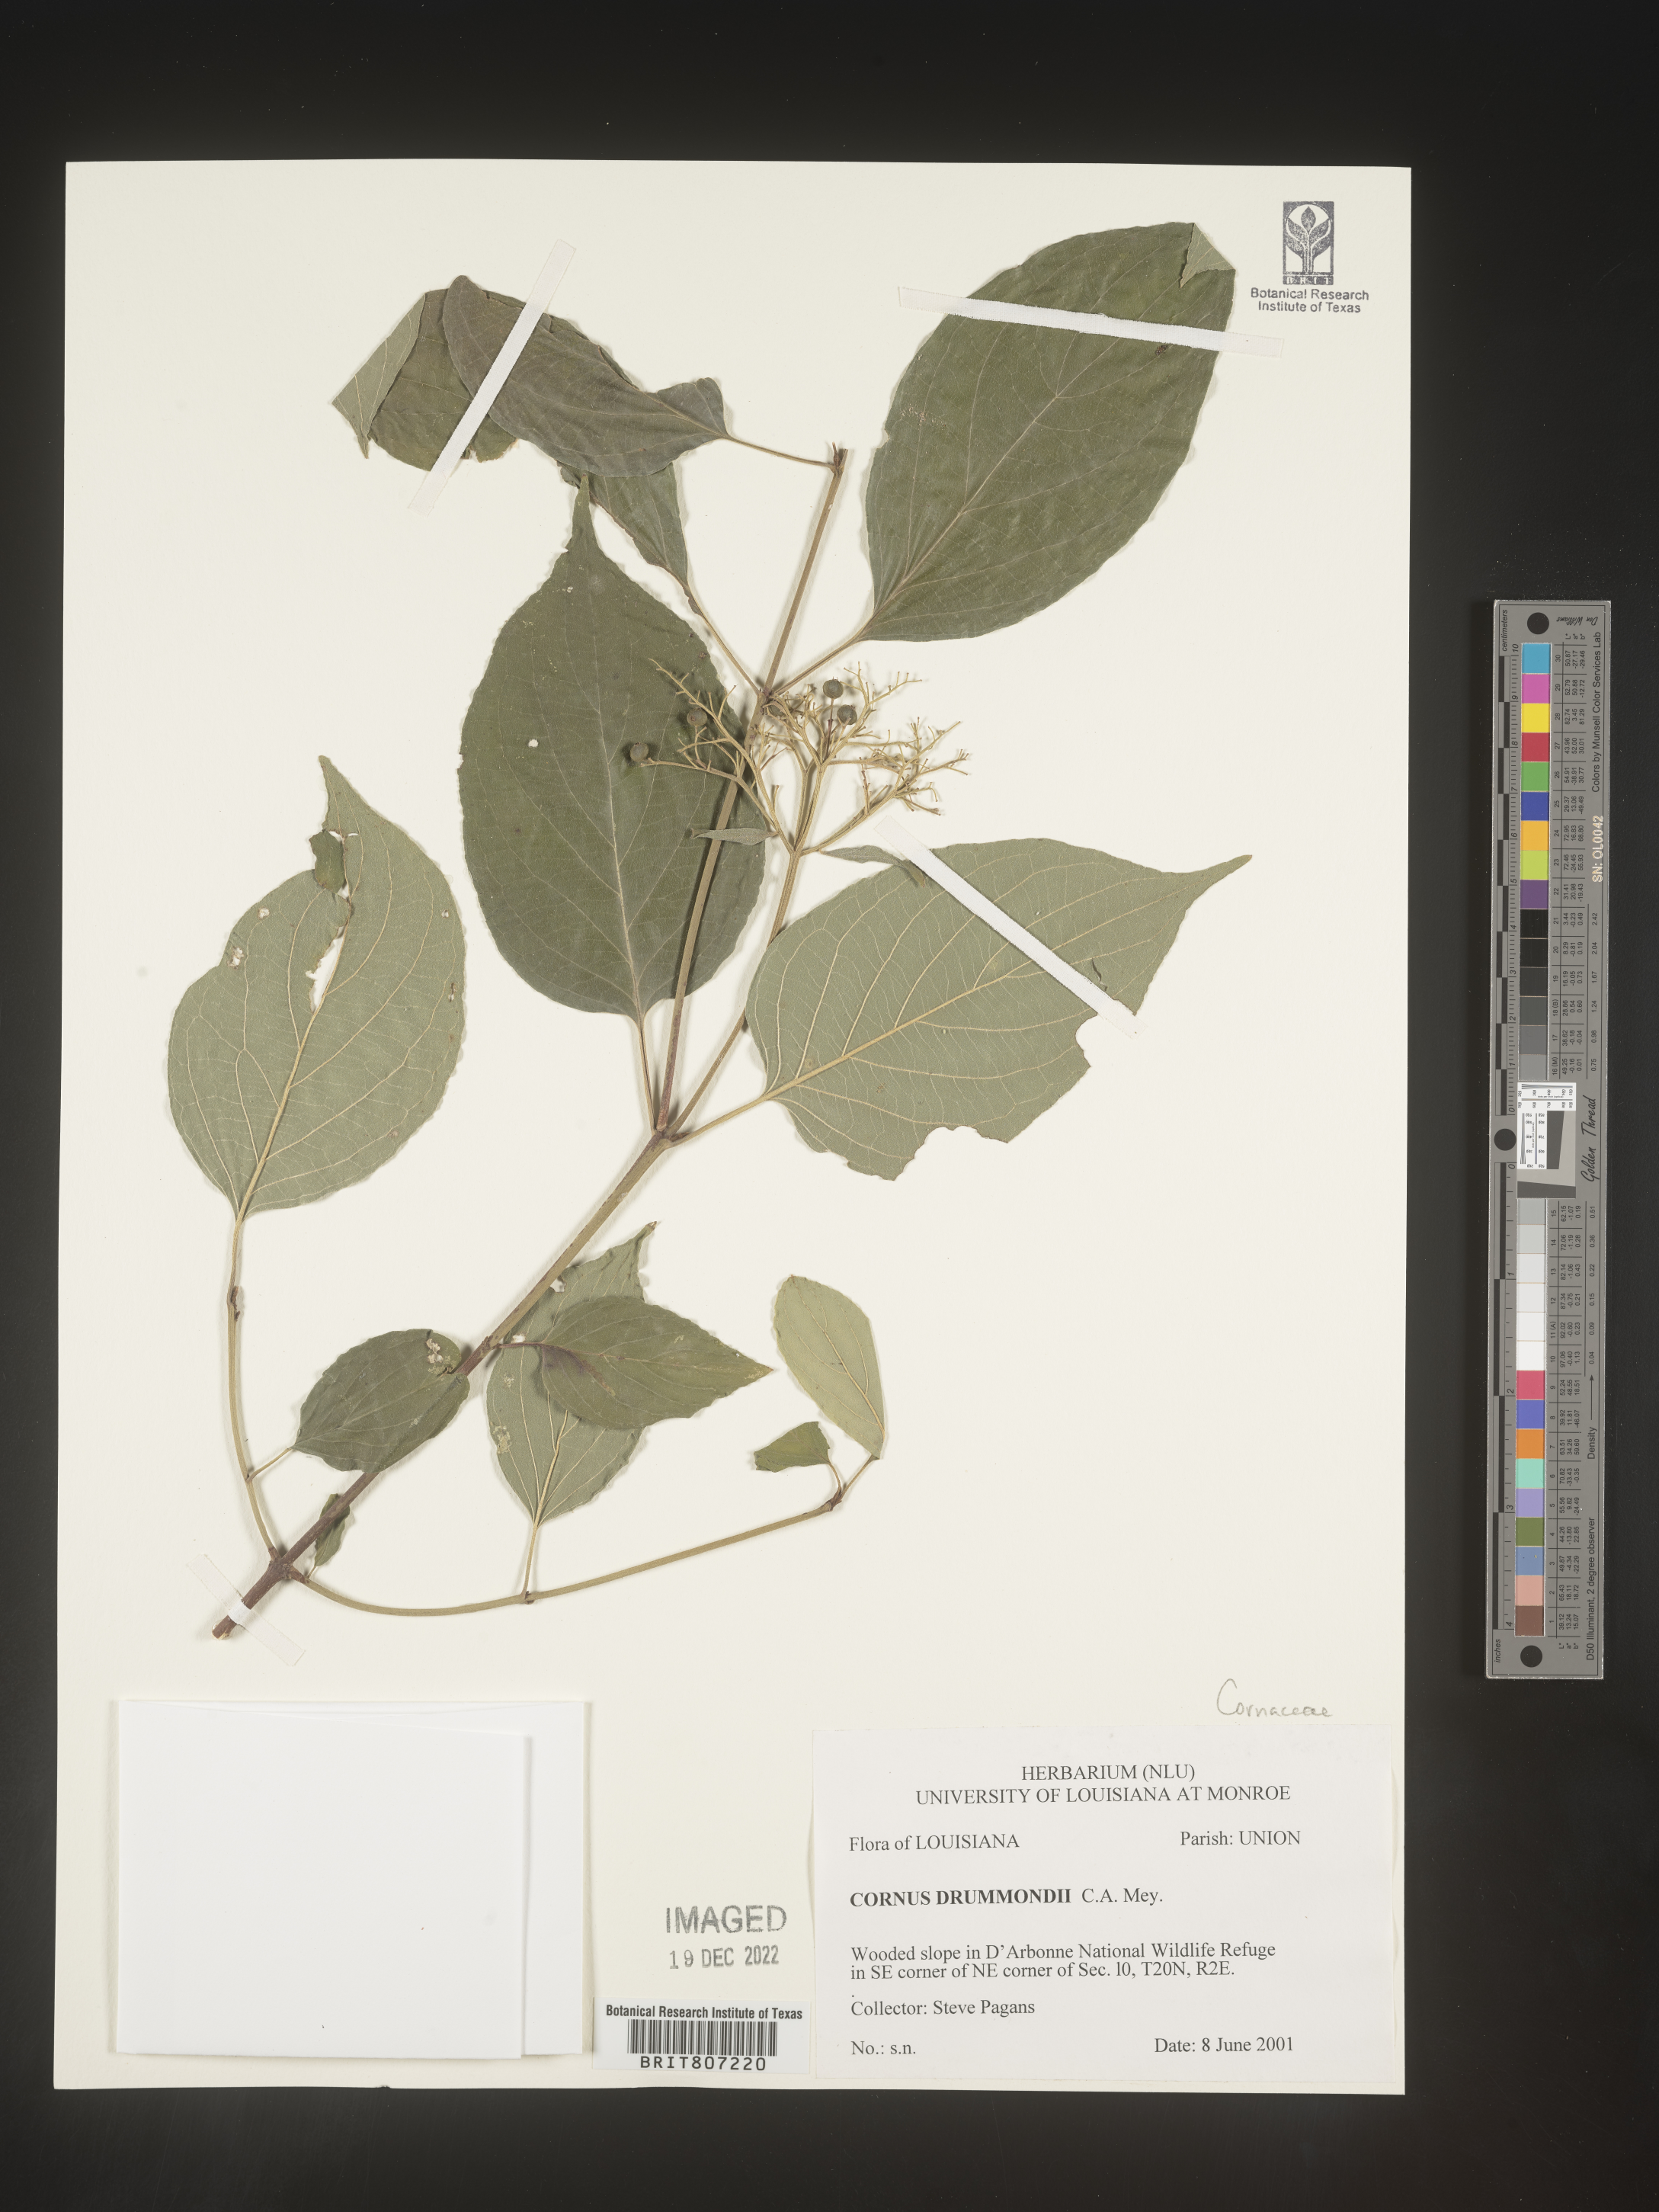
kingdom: Plantae
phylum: Tracheophyta
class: Magnoliopsida
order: Cornales
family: Cornaceae
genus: Cornus
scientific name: Cornus drummondii
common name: Rough-leaf dogwood
